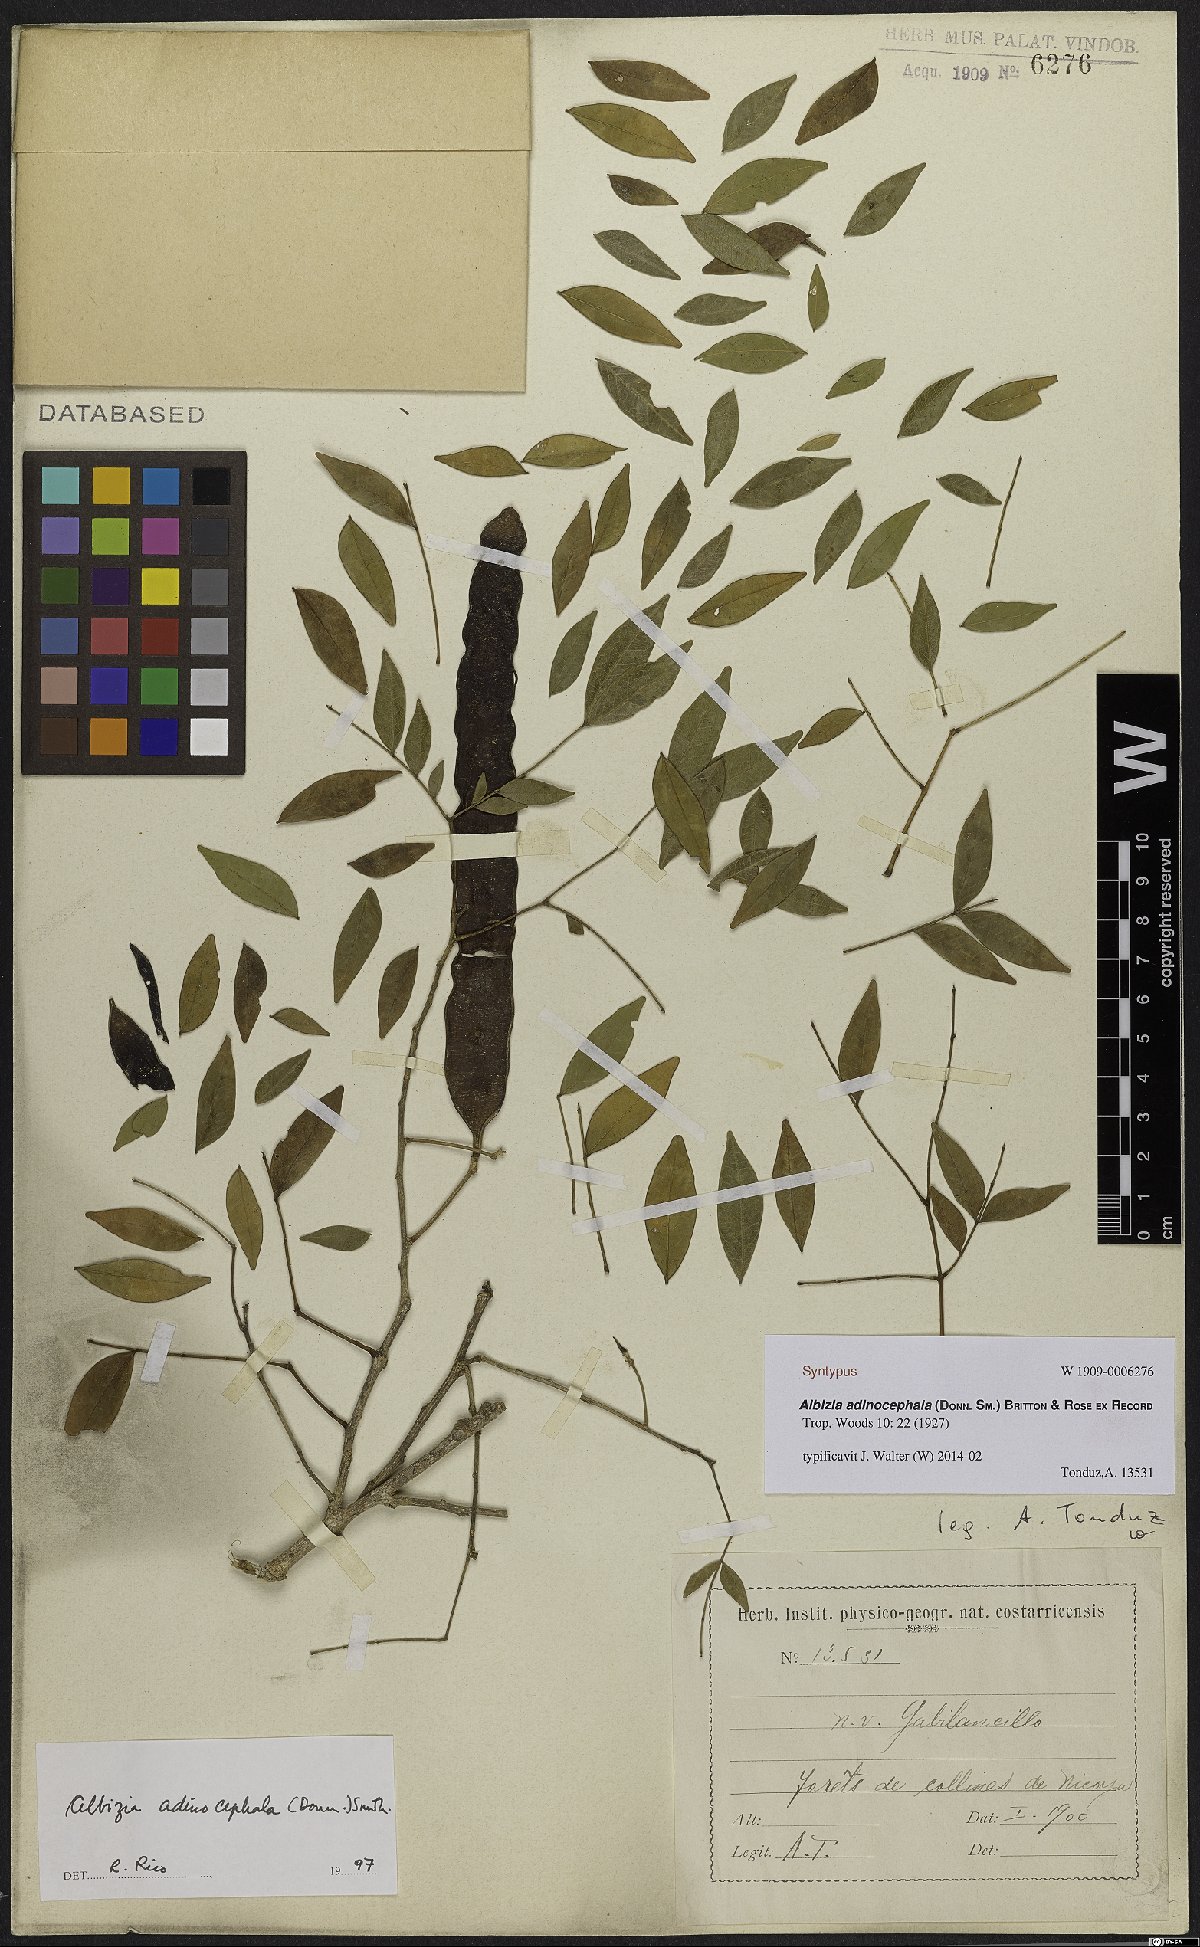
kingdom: Plantae
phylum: Tracheophyta
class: Magnoliopsida
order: Fabales
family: Fabaceae
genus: Albizia
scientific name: Albizia adinocephala
